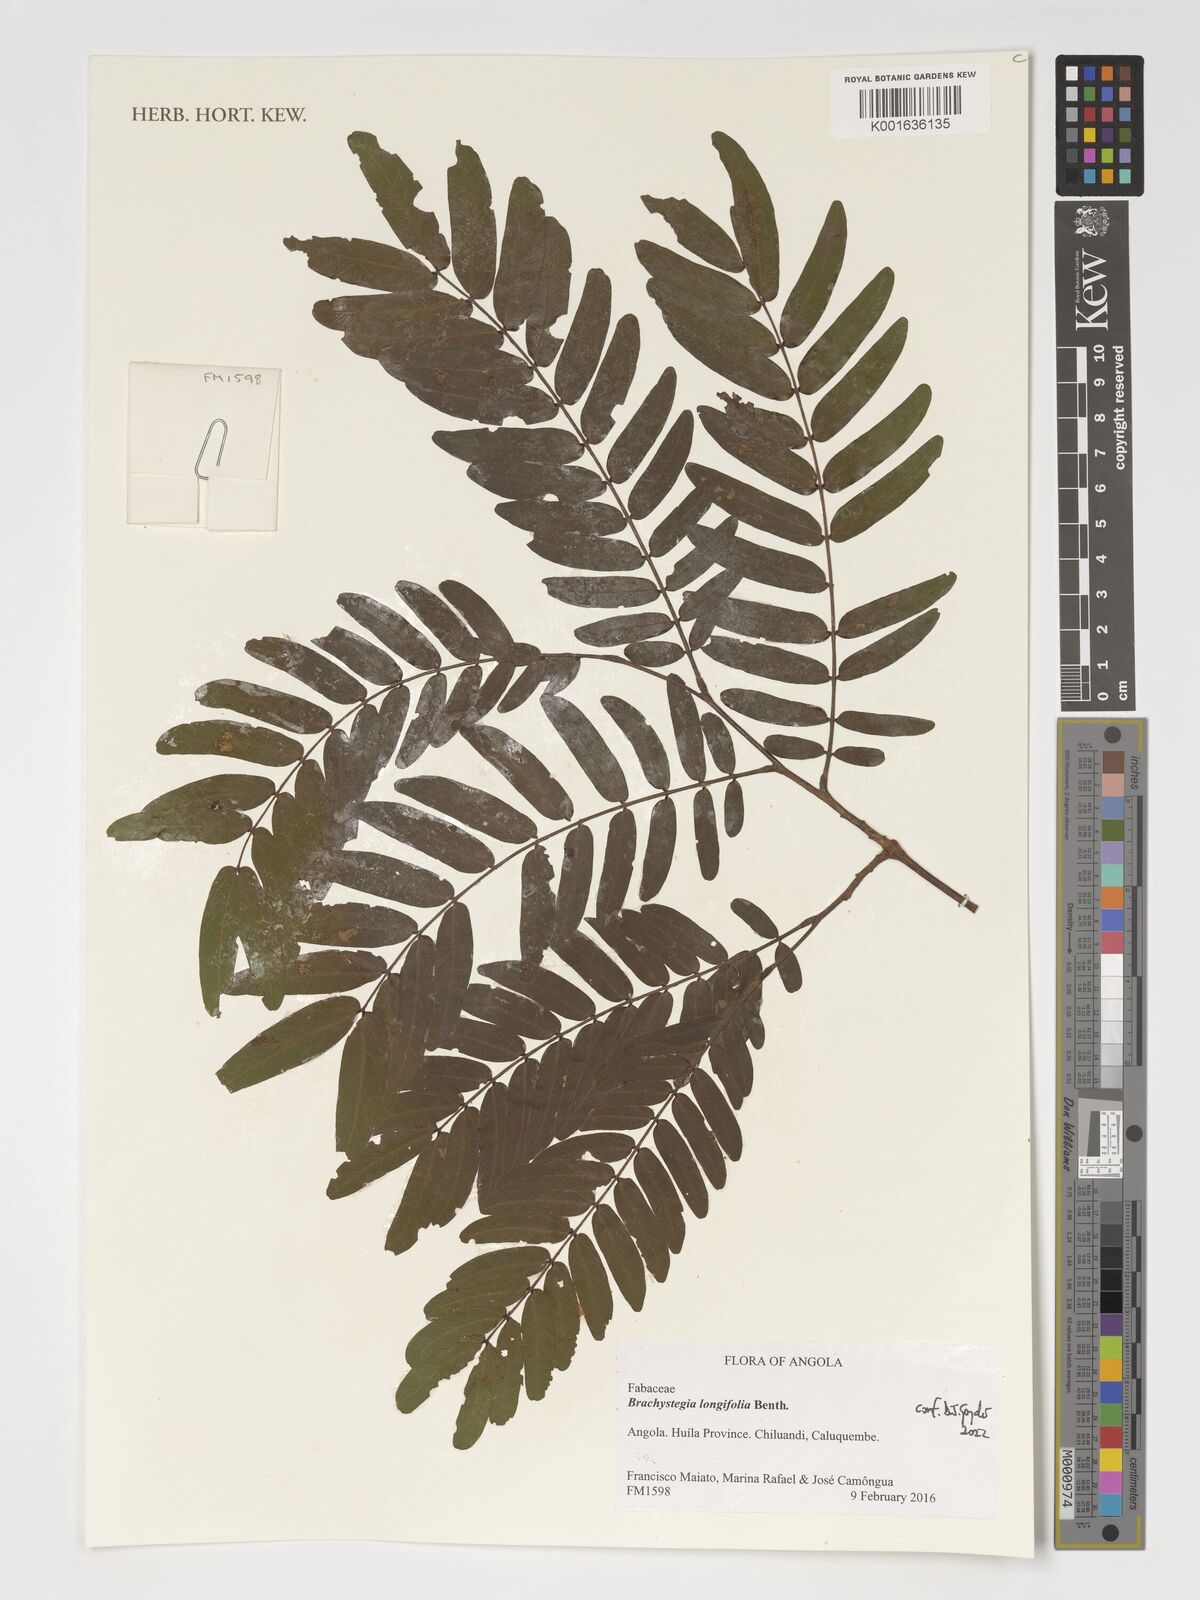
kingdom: Plantae
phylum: Tracheophyta
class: Magnoliopsida
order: Fabales
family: Fabaceae
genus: Brachystegia
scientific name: Brachystegia longifolia
